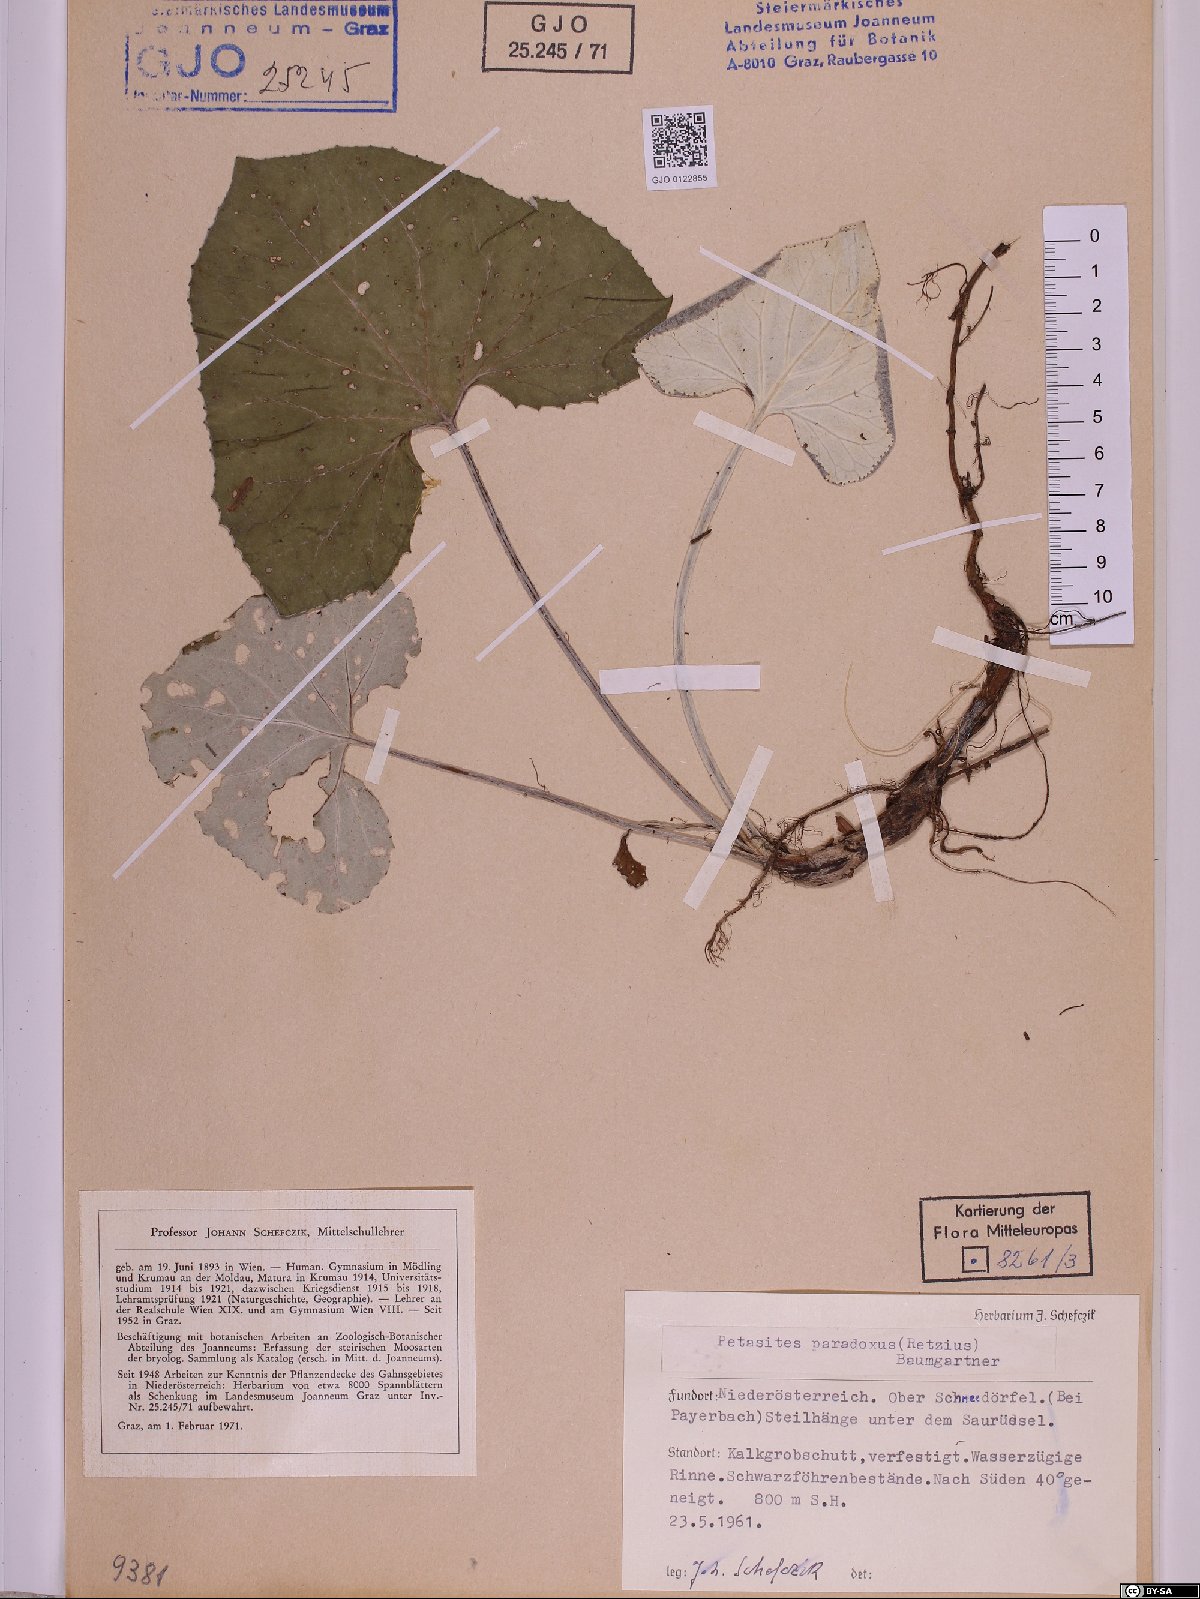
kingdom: Plantae
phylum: Tracheophyta
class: Magnoliopsida
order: Asterales
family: Asteraceae
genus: Petasites
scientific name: Petasites paradoxus
